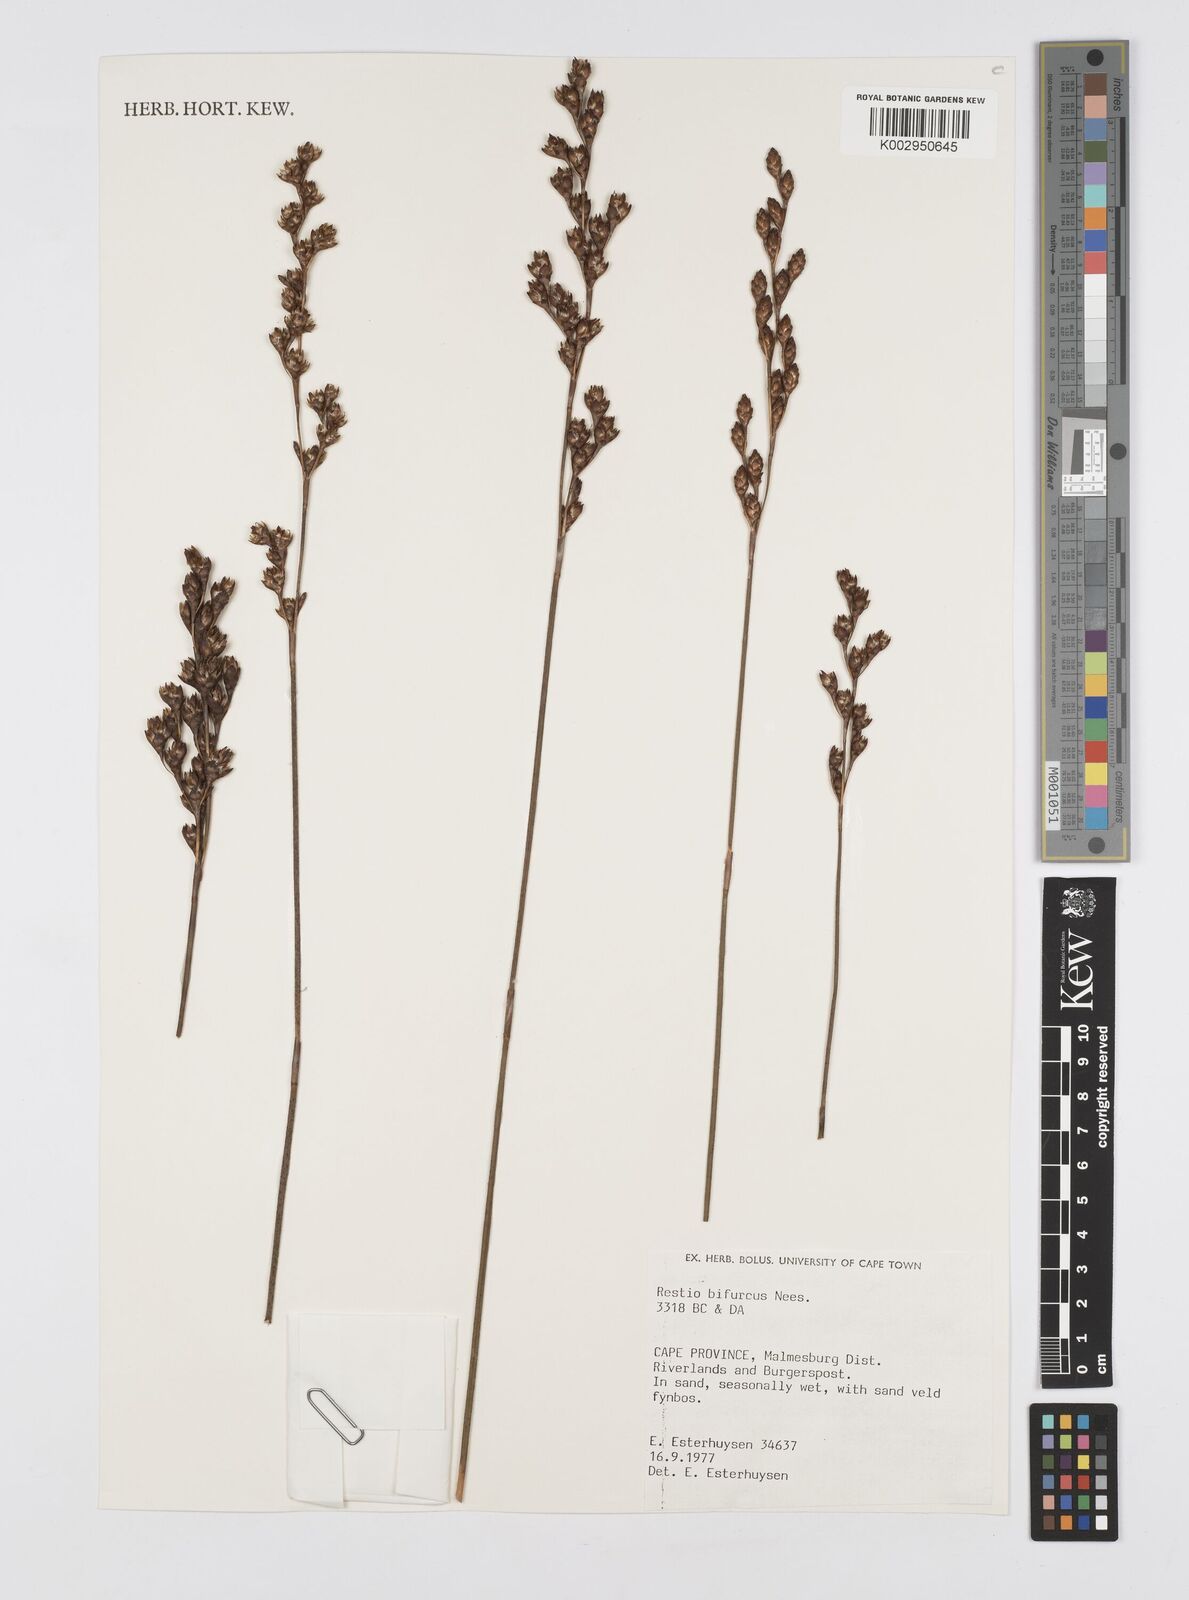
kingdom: Plantae
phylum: Tracheophyta
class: Liliopsida
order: Poales
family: Restionaceae
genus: Restio
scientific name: Restio bifurcus
